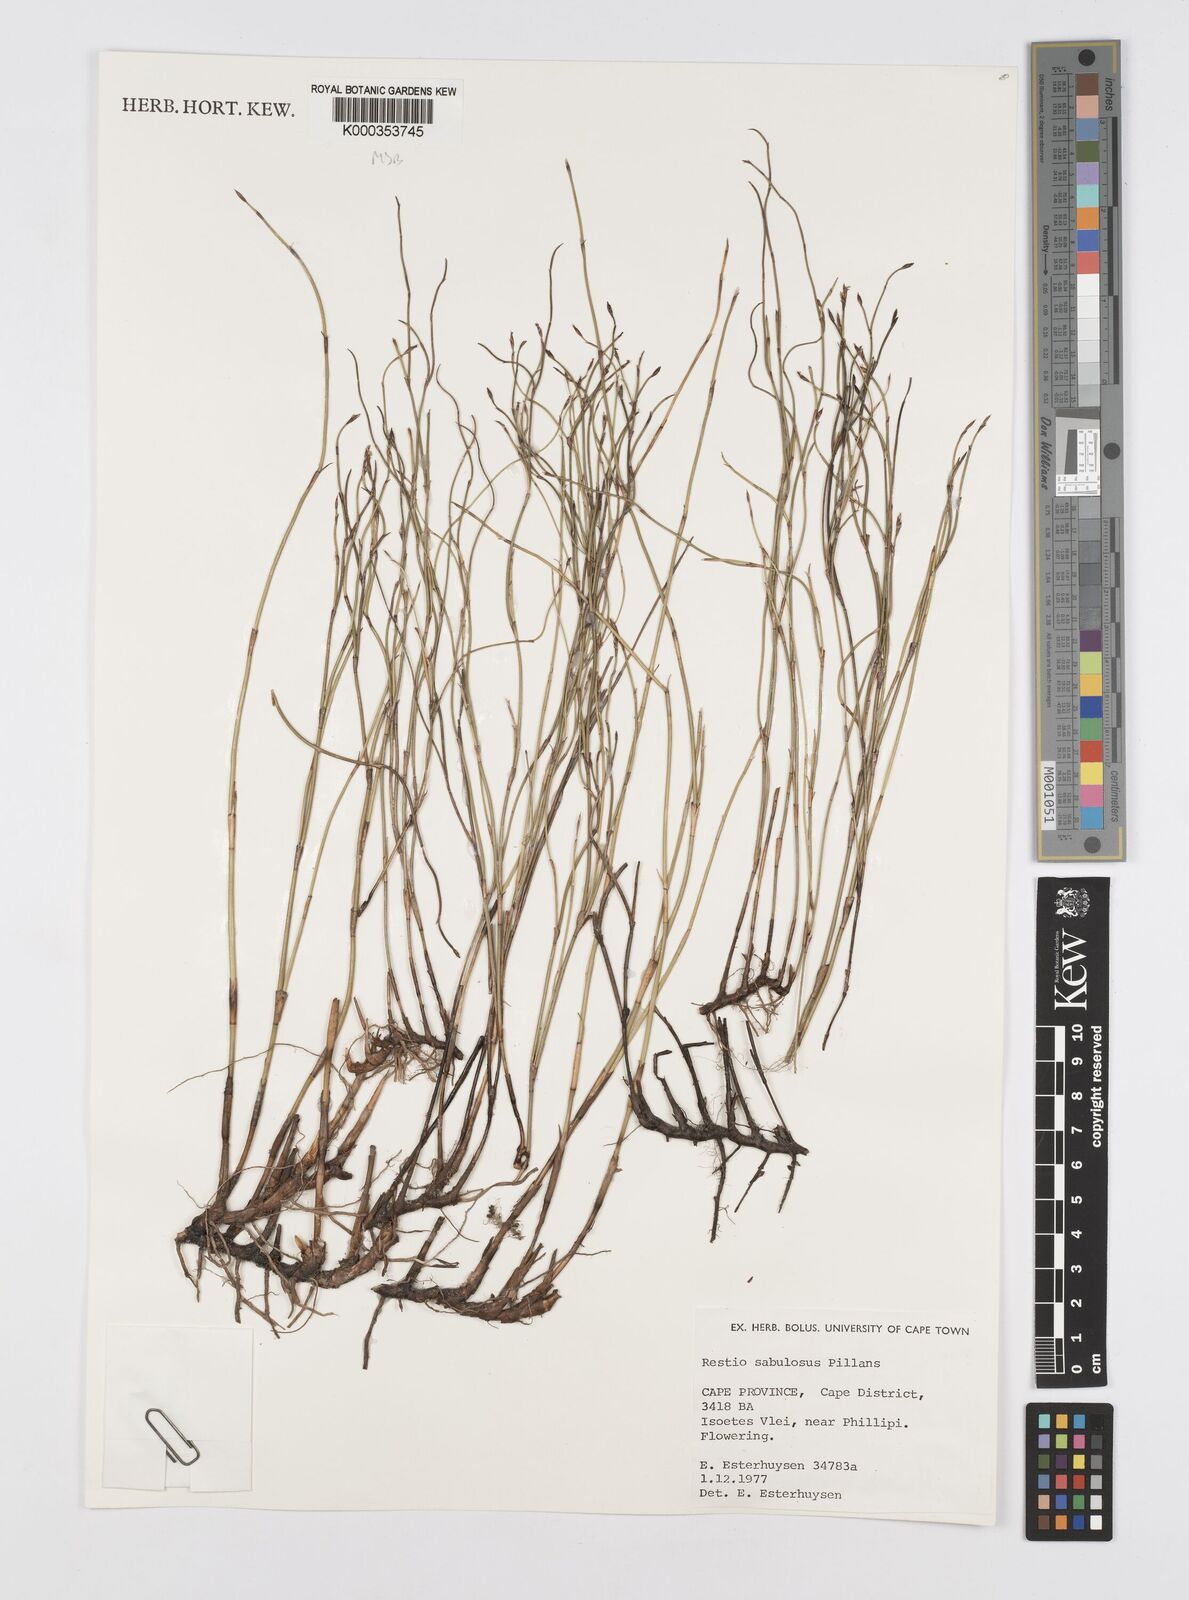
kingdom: Plantae
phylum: Tracheophyta
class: Liliopsida
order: Poales
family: Restionaceae
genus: Restio
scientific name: Restio sabulosus
